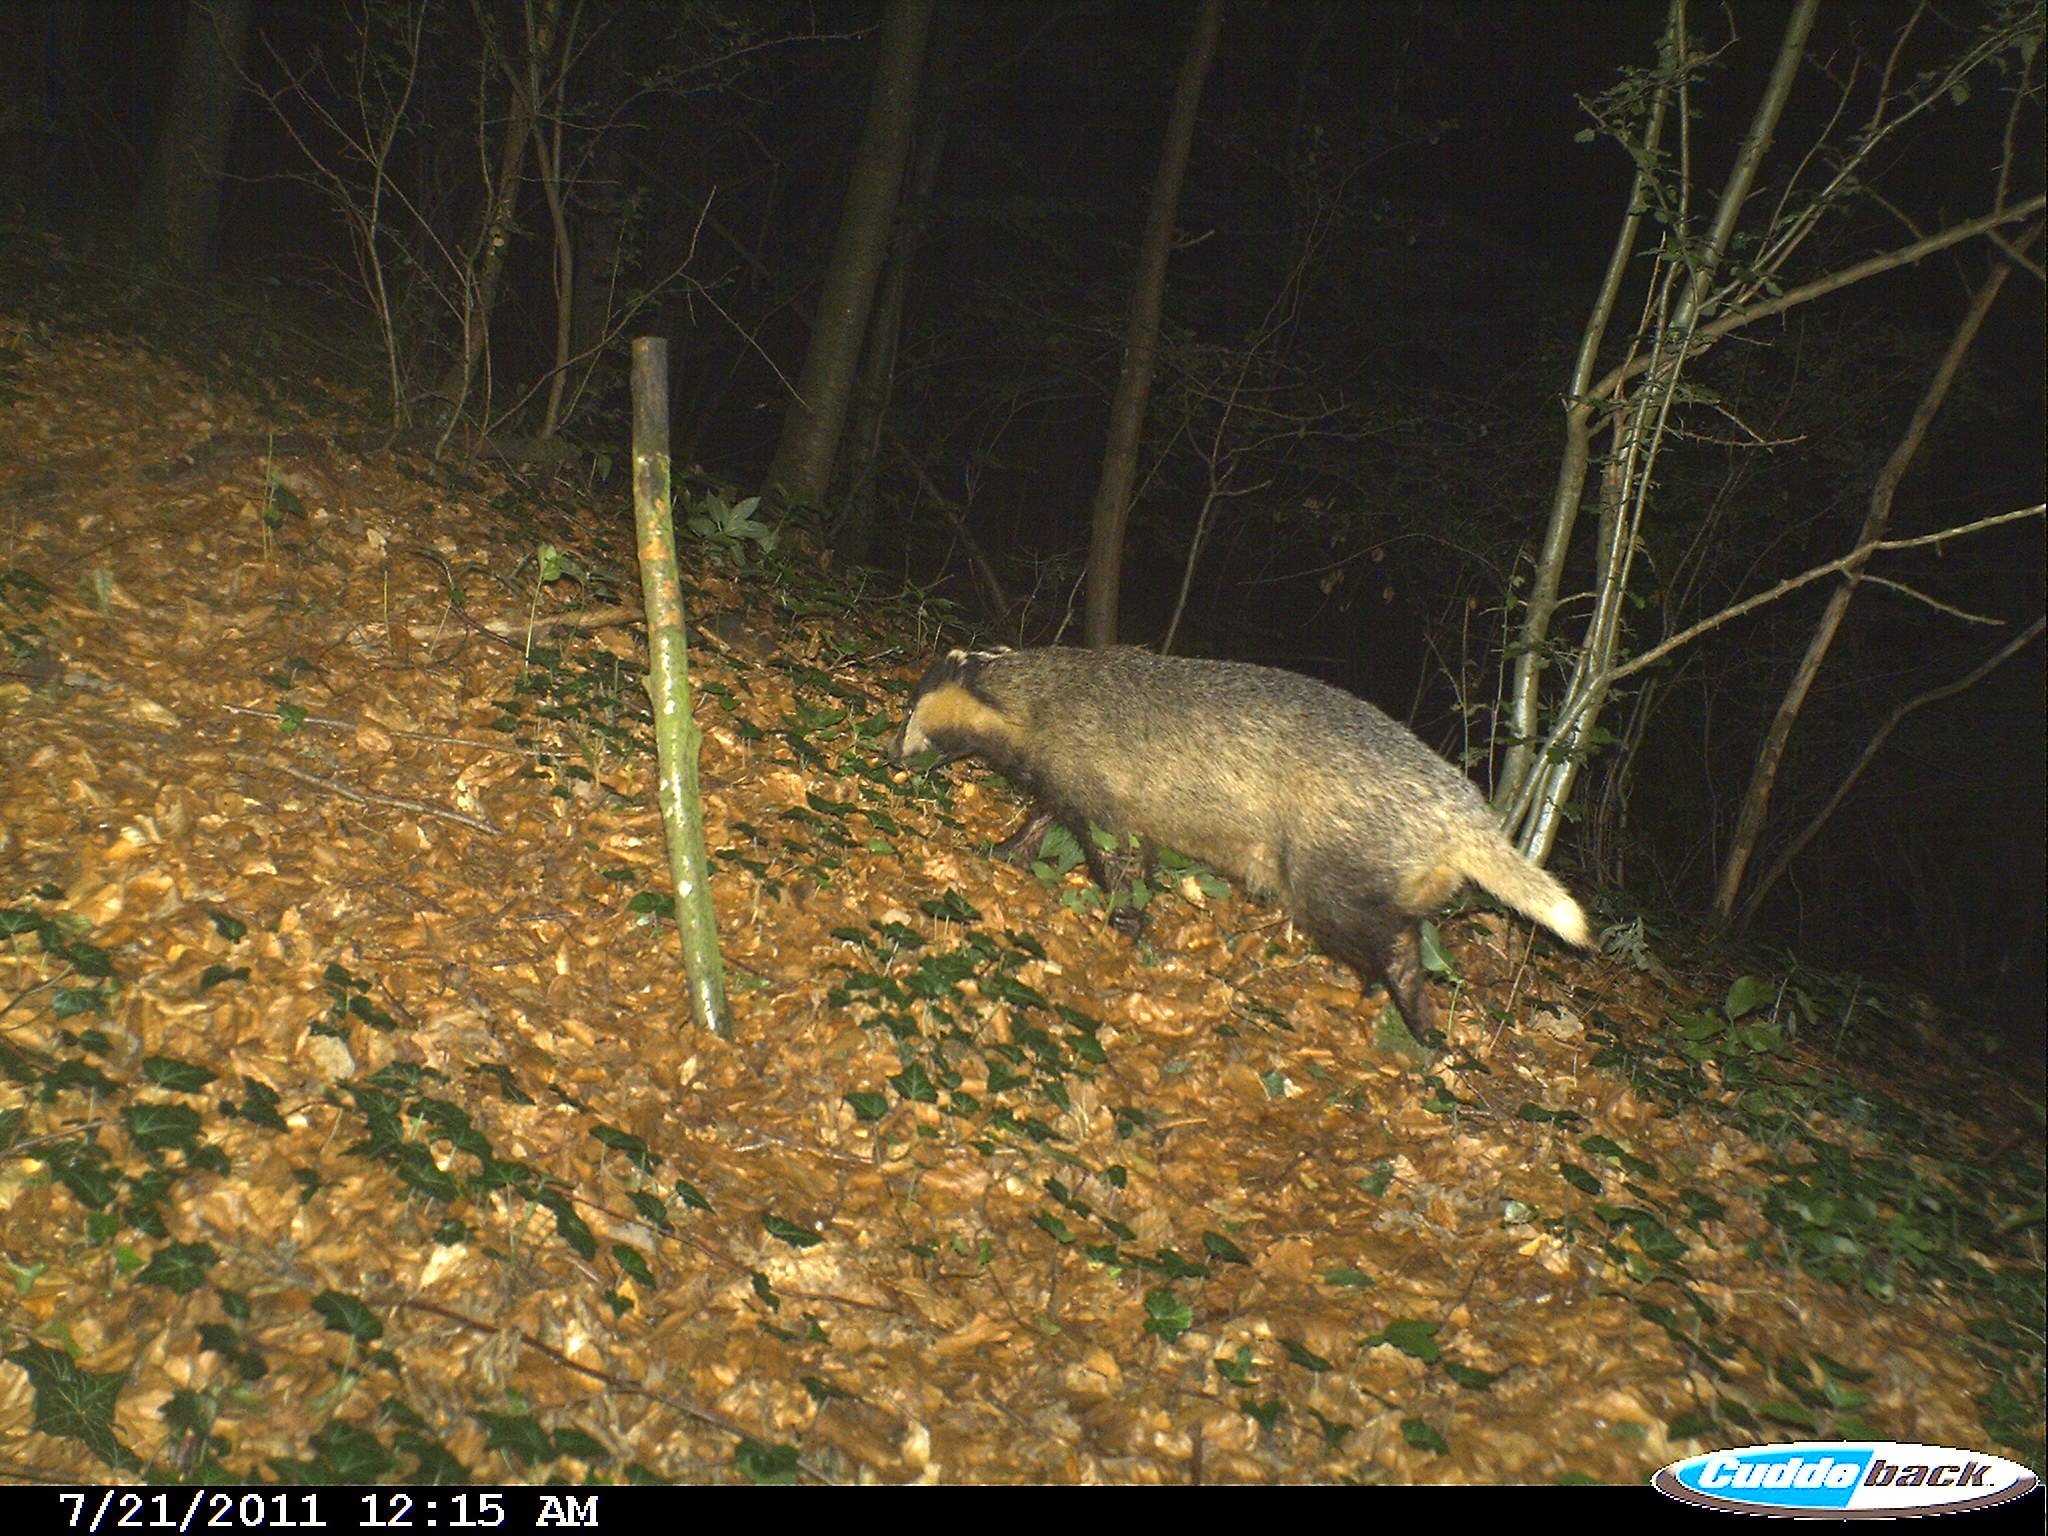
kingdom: Animalia
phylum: Chordata
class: Mammalia
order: Carnivora
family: Mustelidae
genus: Meles
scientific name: Meles meles
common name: Eurasian badger
